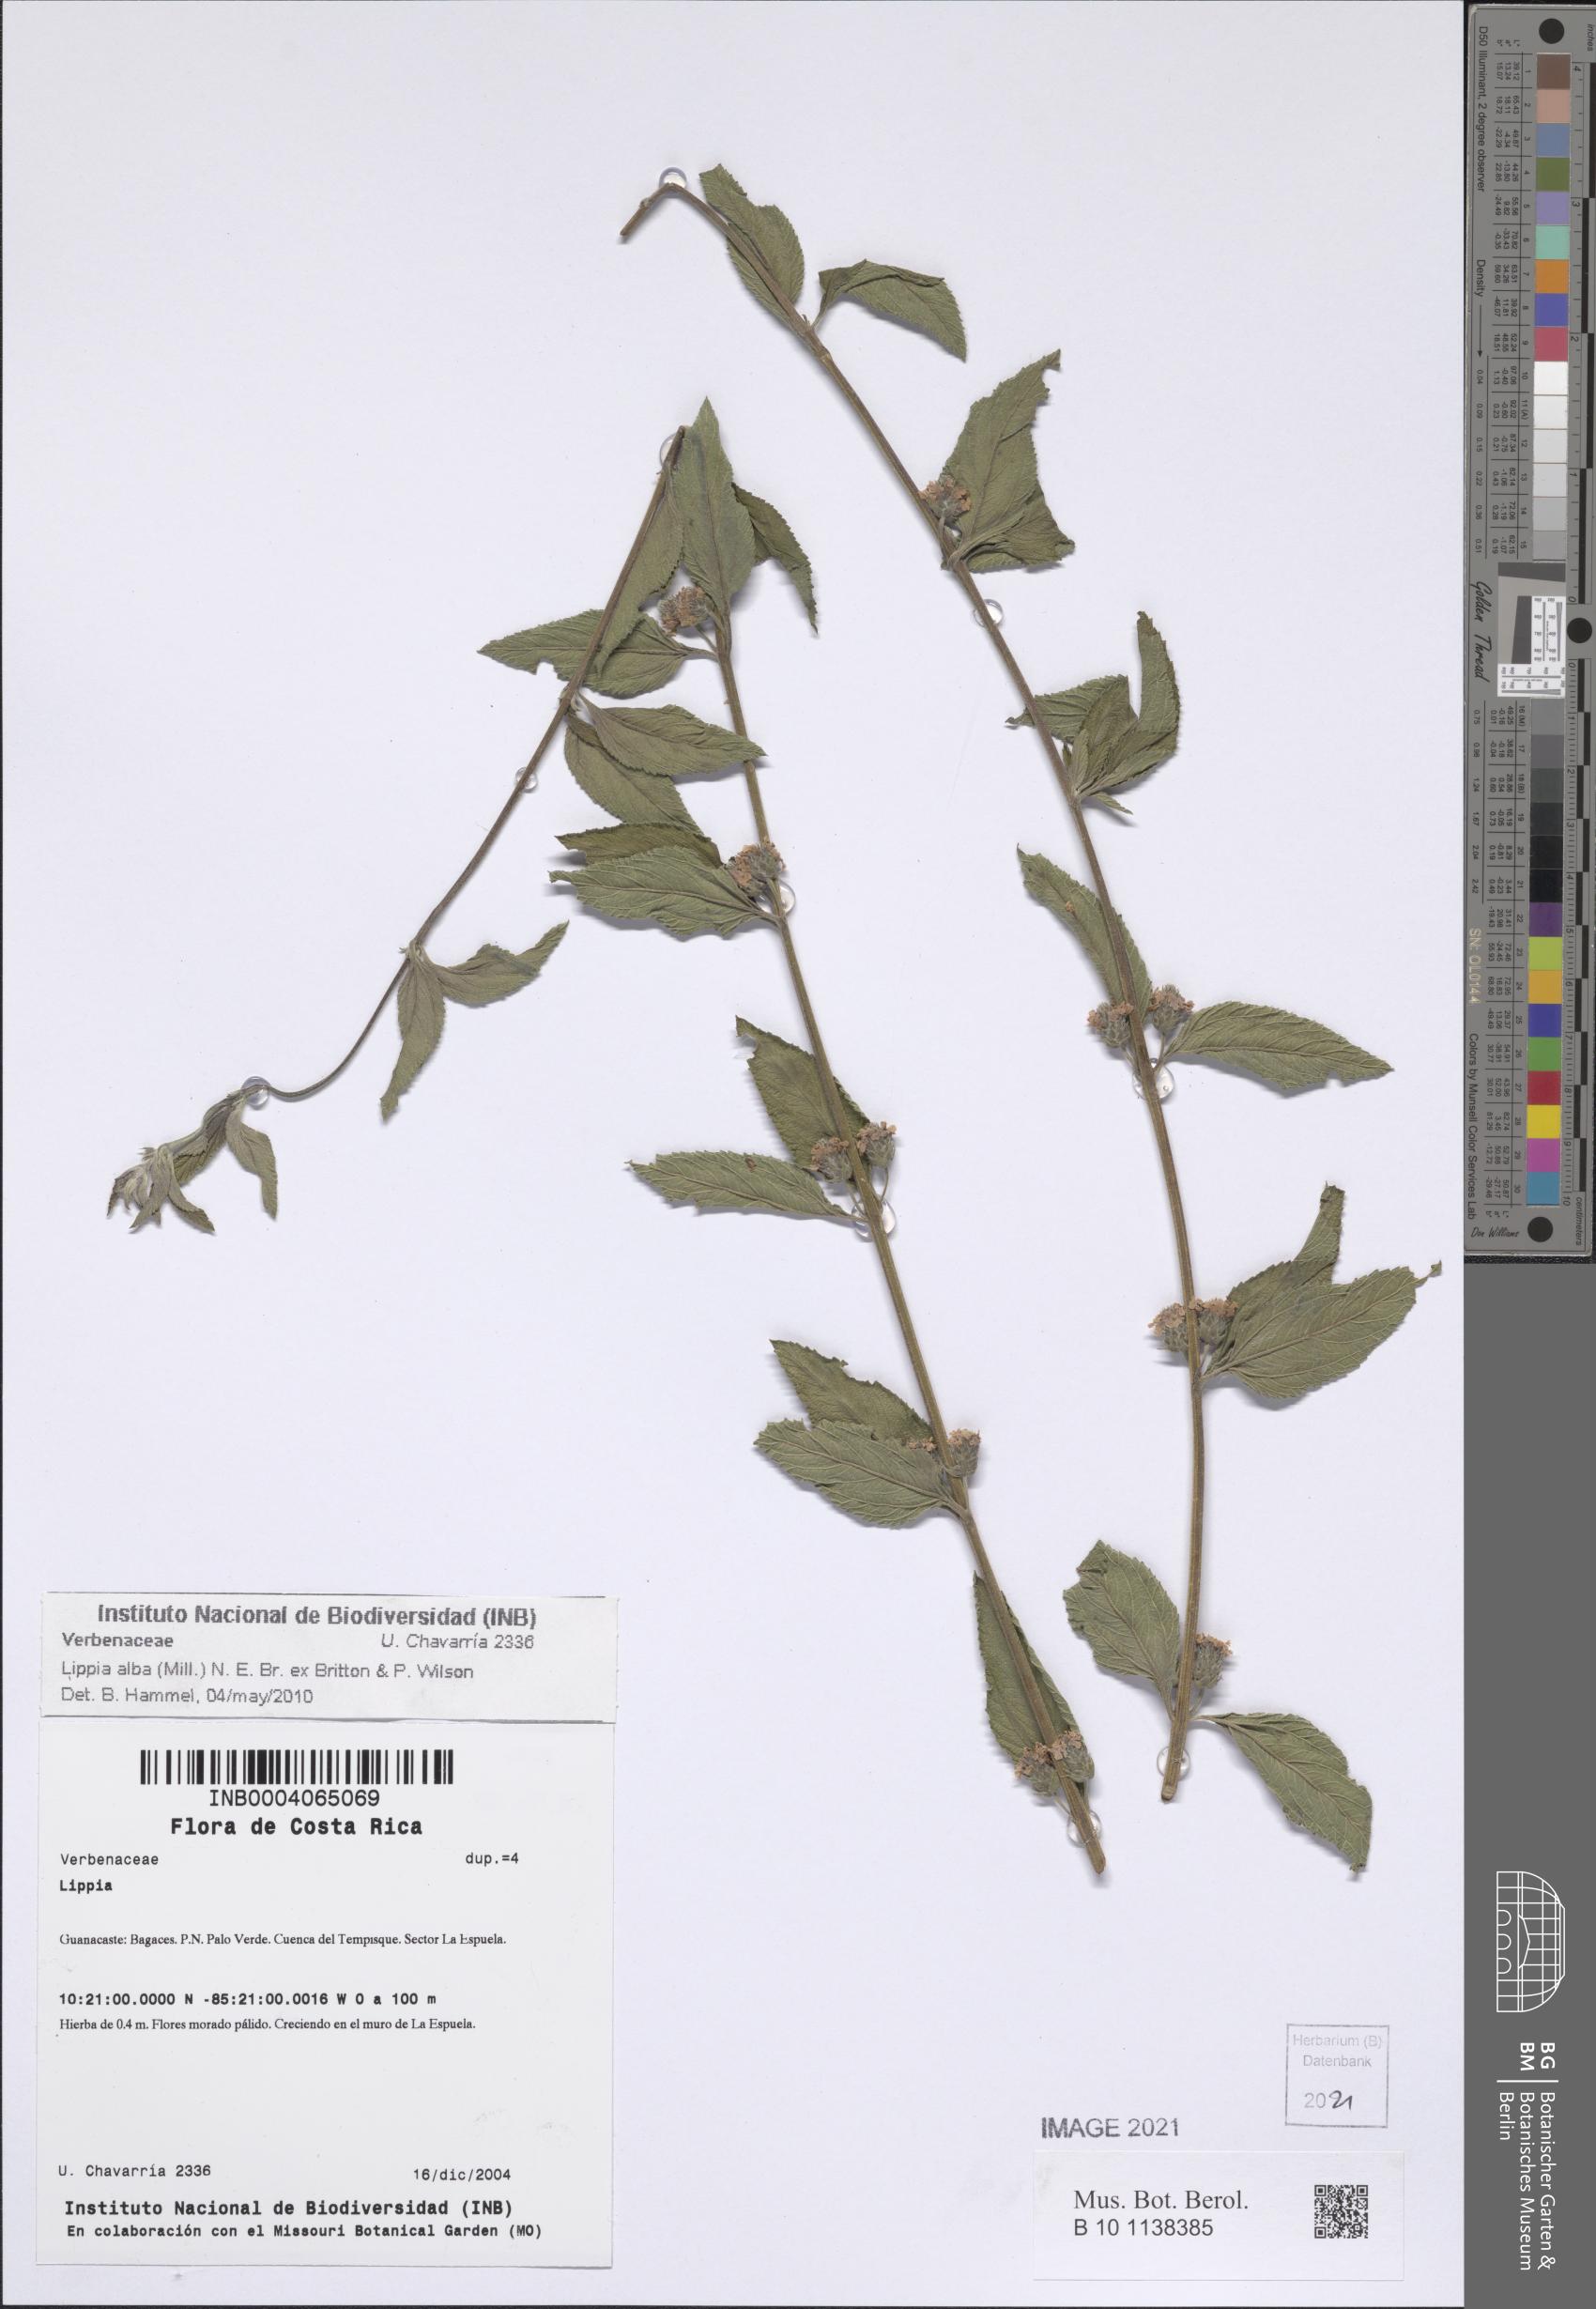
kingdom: Plantae
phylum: Tracheophyta
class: Magnoliopsida
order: Lamiales
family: Verbenaceae
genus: Lippia
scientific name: Lippia alba
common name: Bushy matgrass
